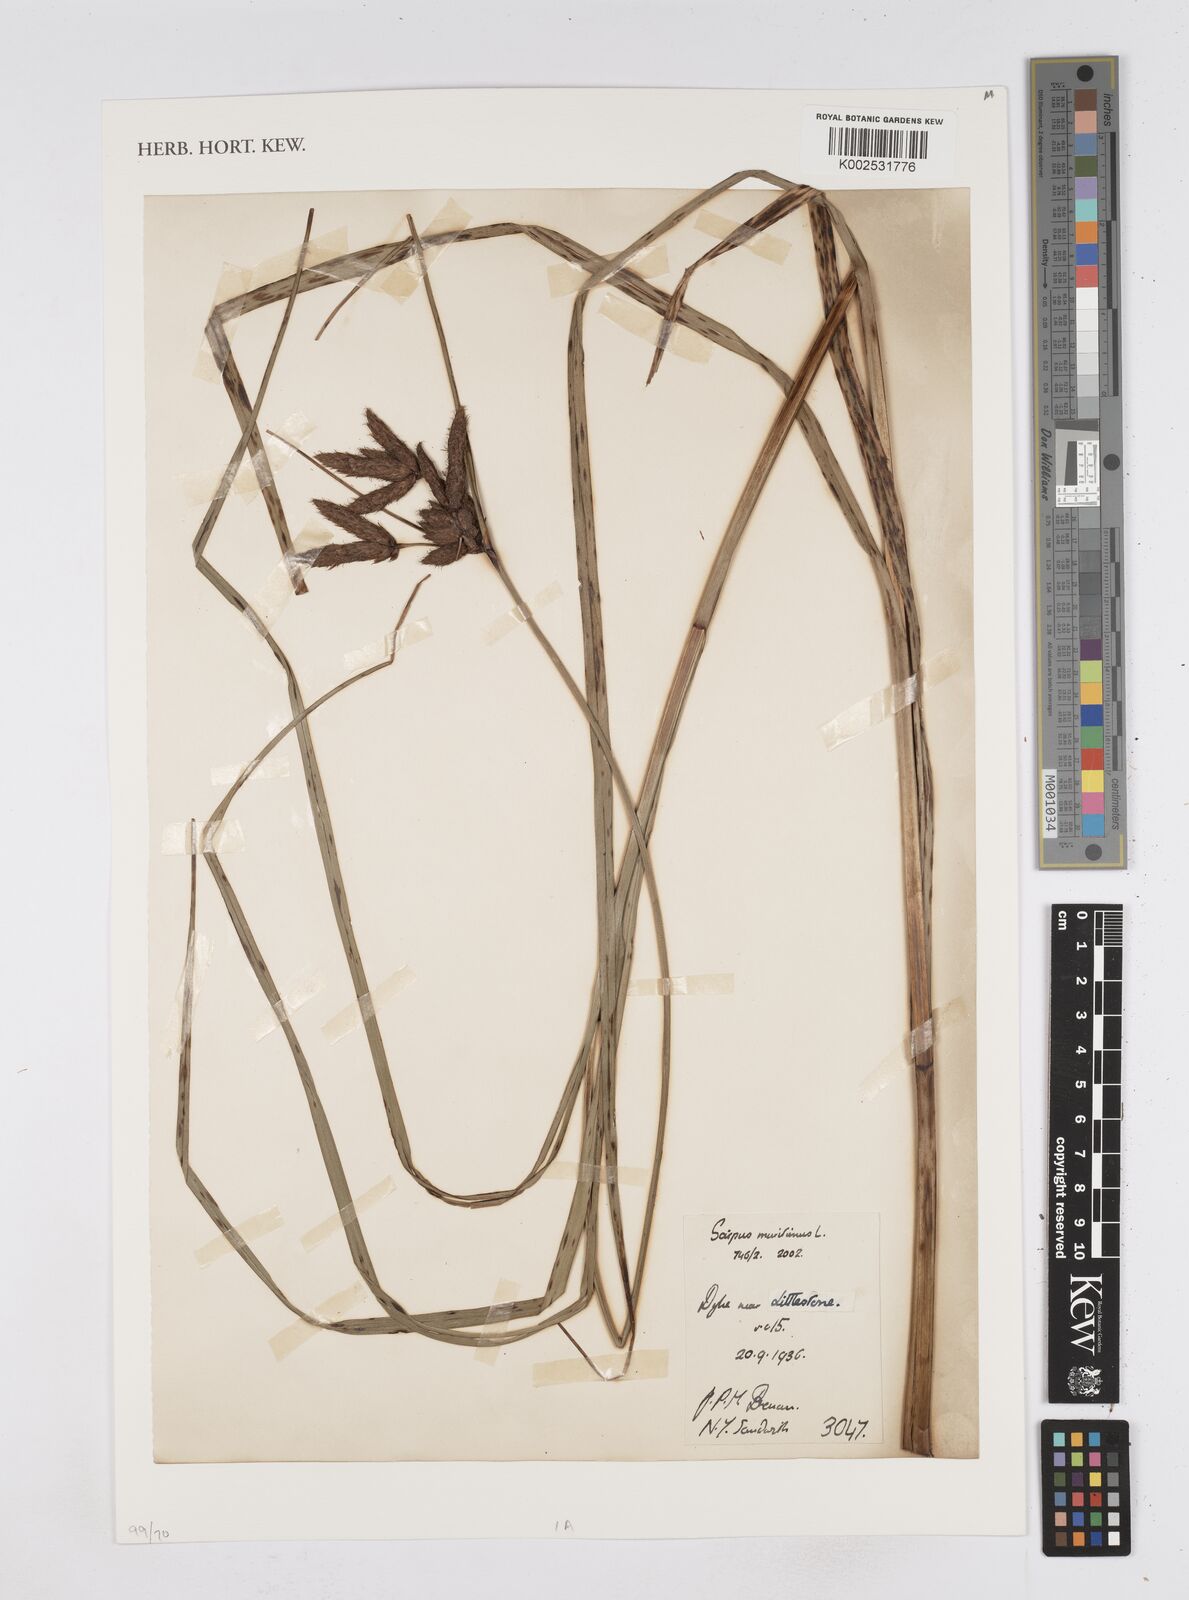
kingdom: Plantae
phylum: Tracheophyta
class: Liliopsida
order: Poales
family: Cyperaceae
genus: Bolboschoenus
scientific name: Bolboschoenus maritimus
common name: Sea club-rush
